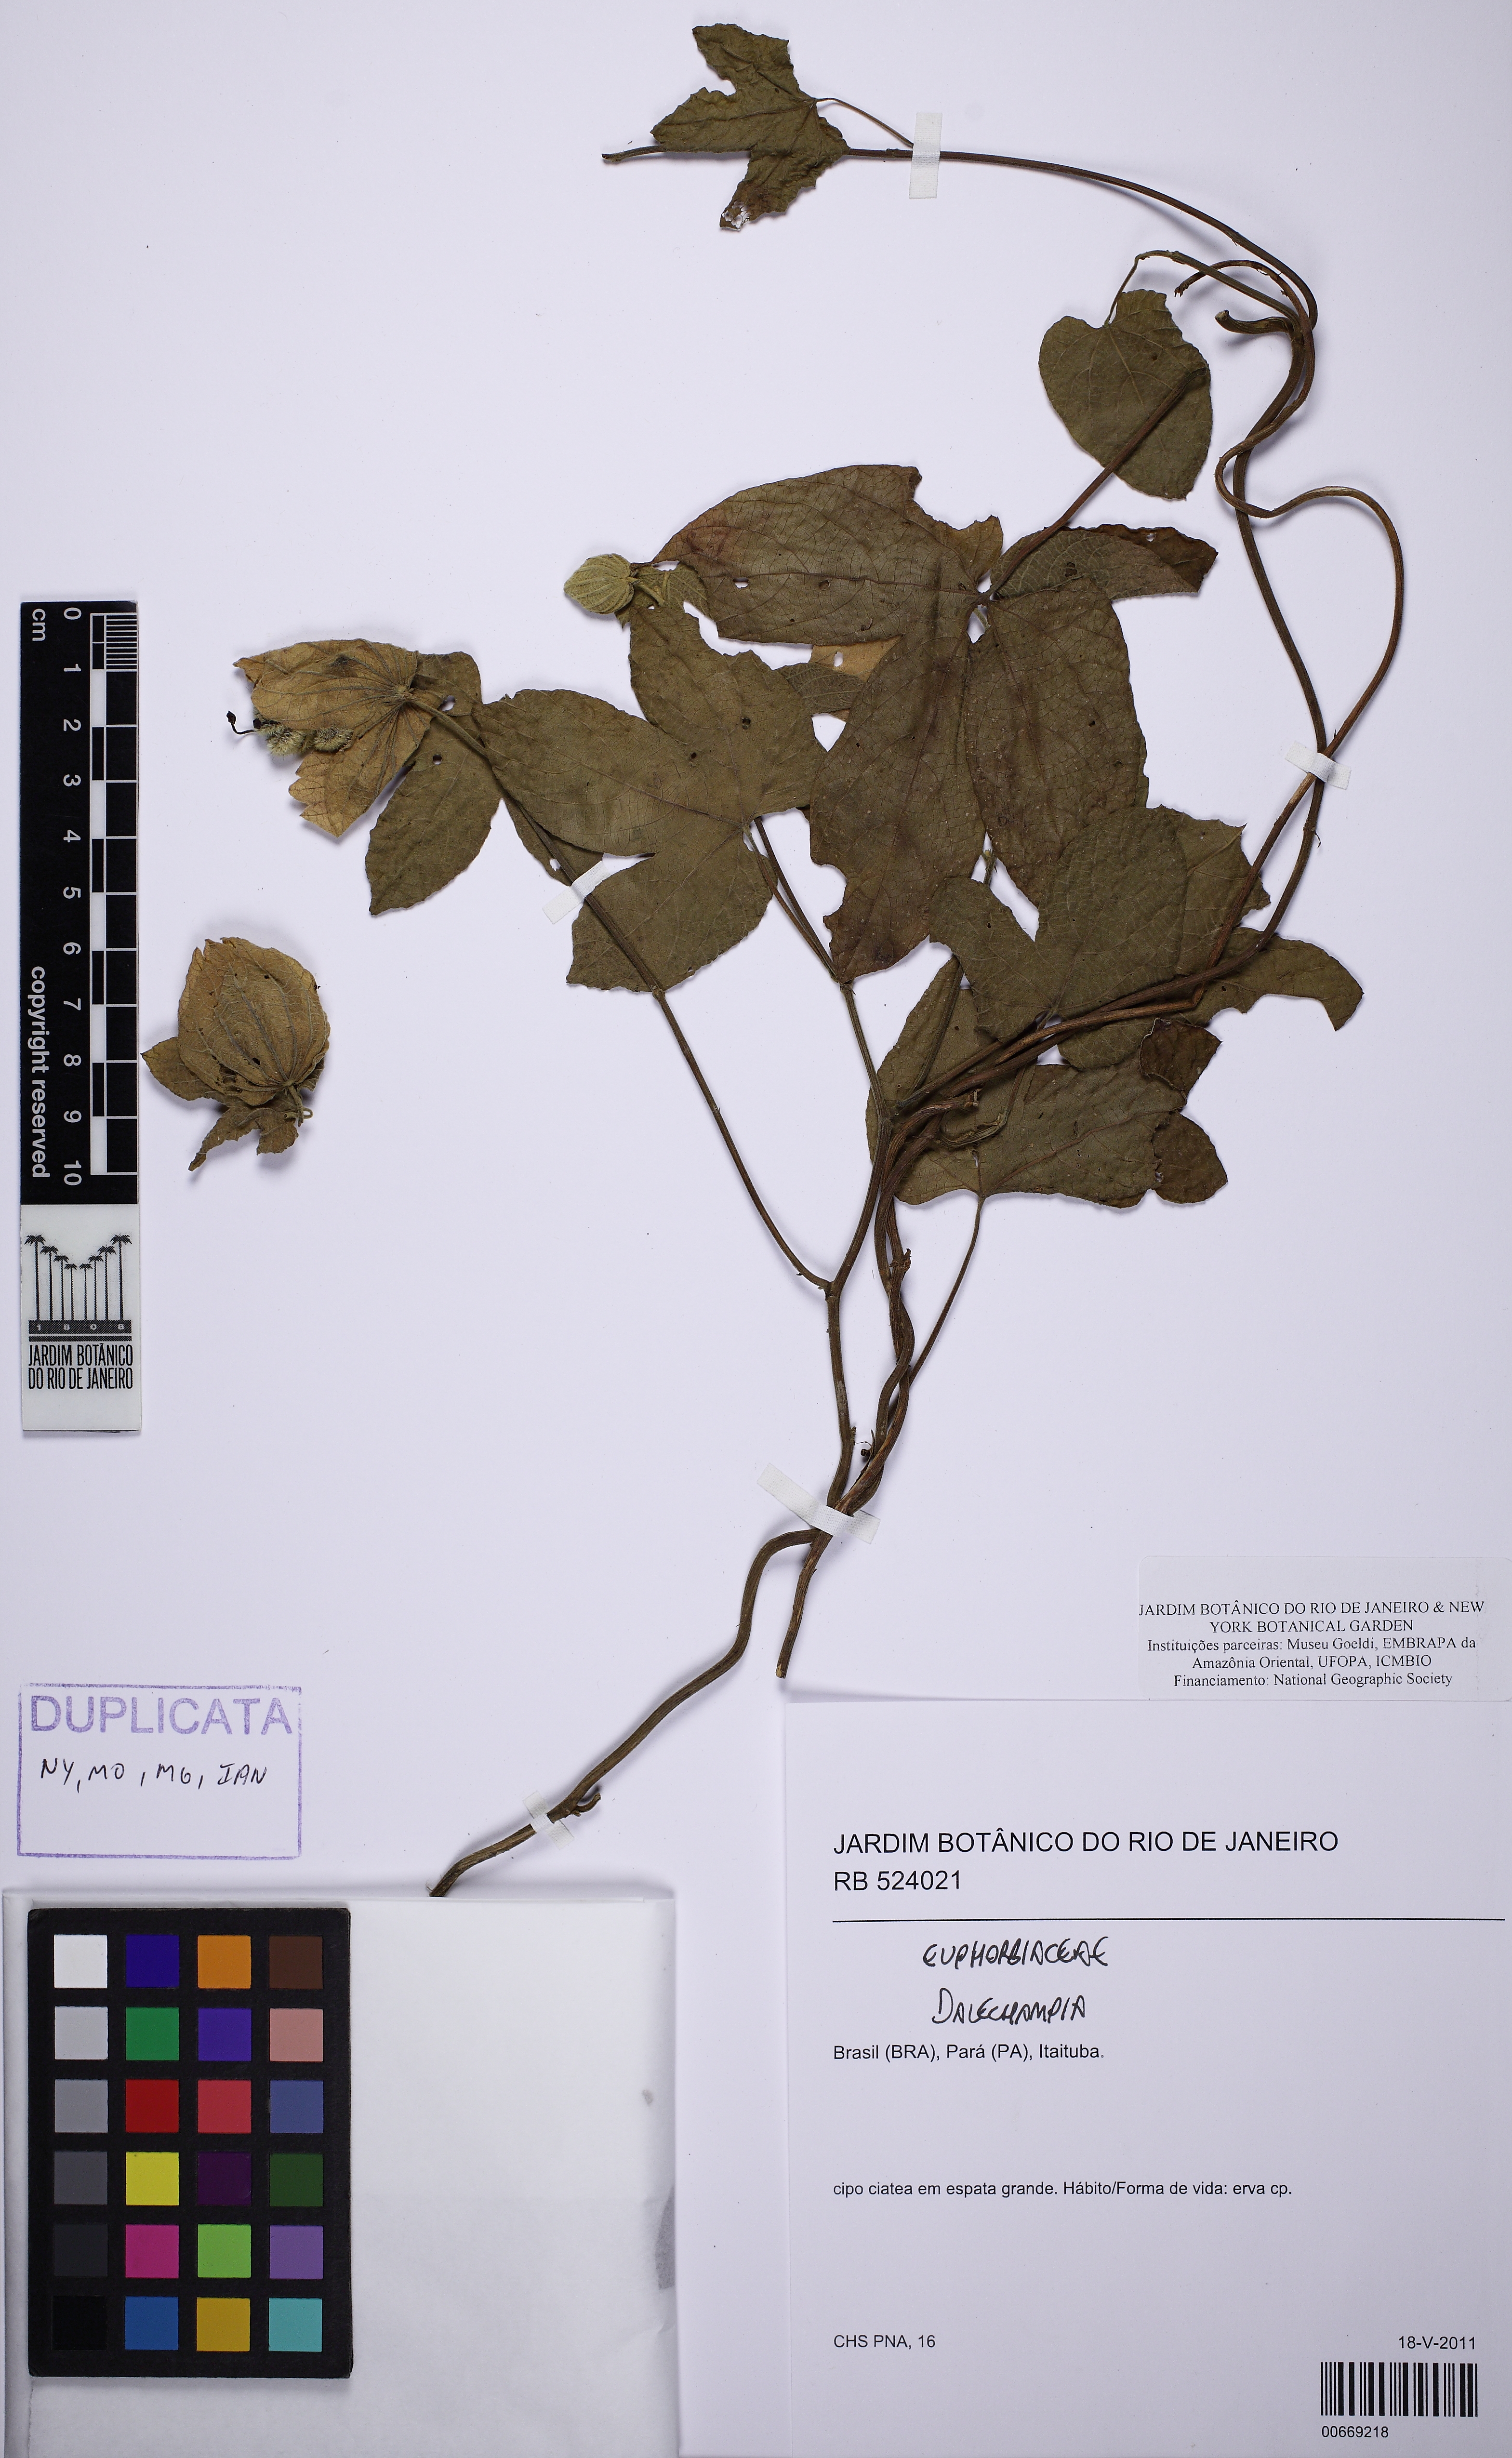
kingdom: Plantae
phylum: Tracheophyta
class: Magnoliopsida
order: Malpighiales
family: Euphorbiaceae
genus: Dalechampia
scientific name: Dalechampia tiliifolia
